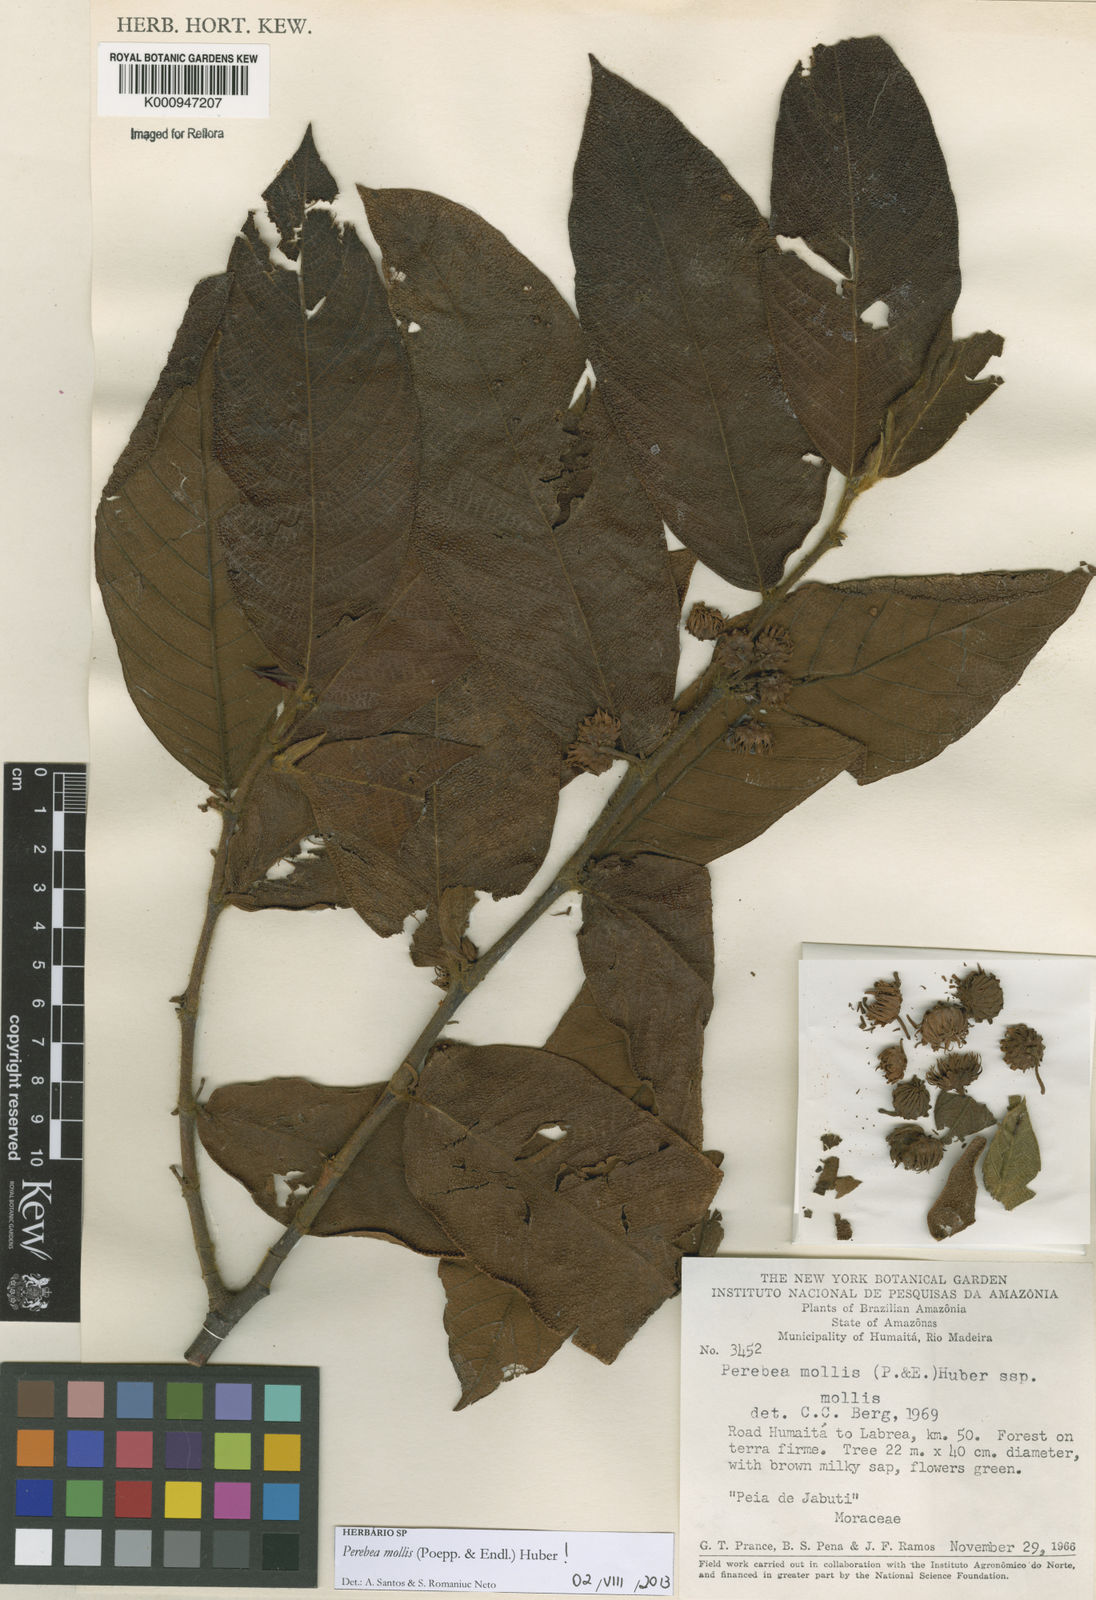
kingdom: Plantae
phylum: Tracheophyta
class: Magnoliopsida
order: Rosales
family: Moraceae
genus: Perebea
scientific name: Perebea mollis
